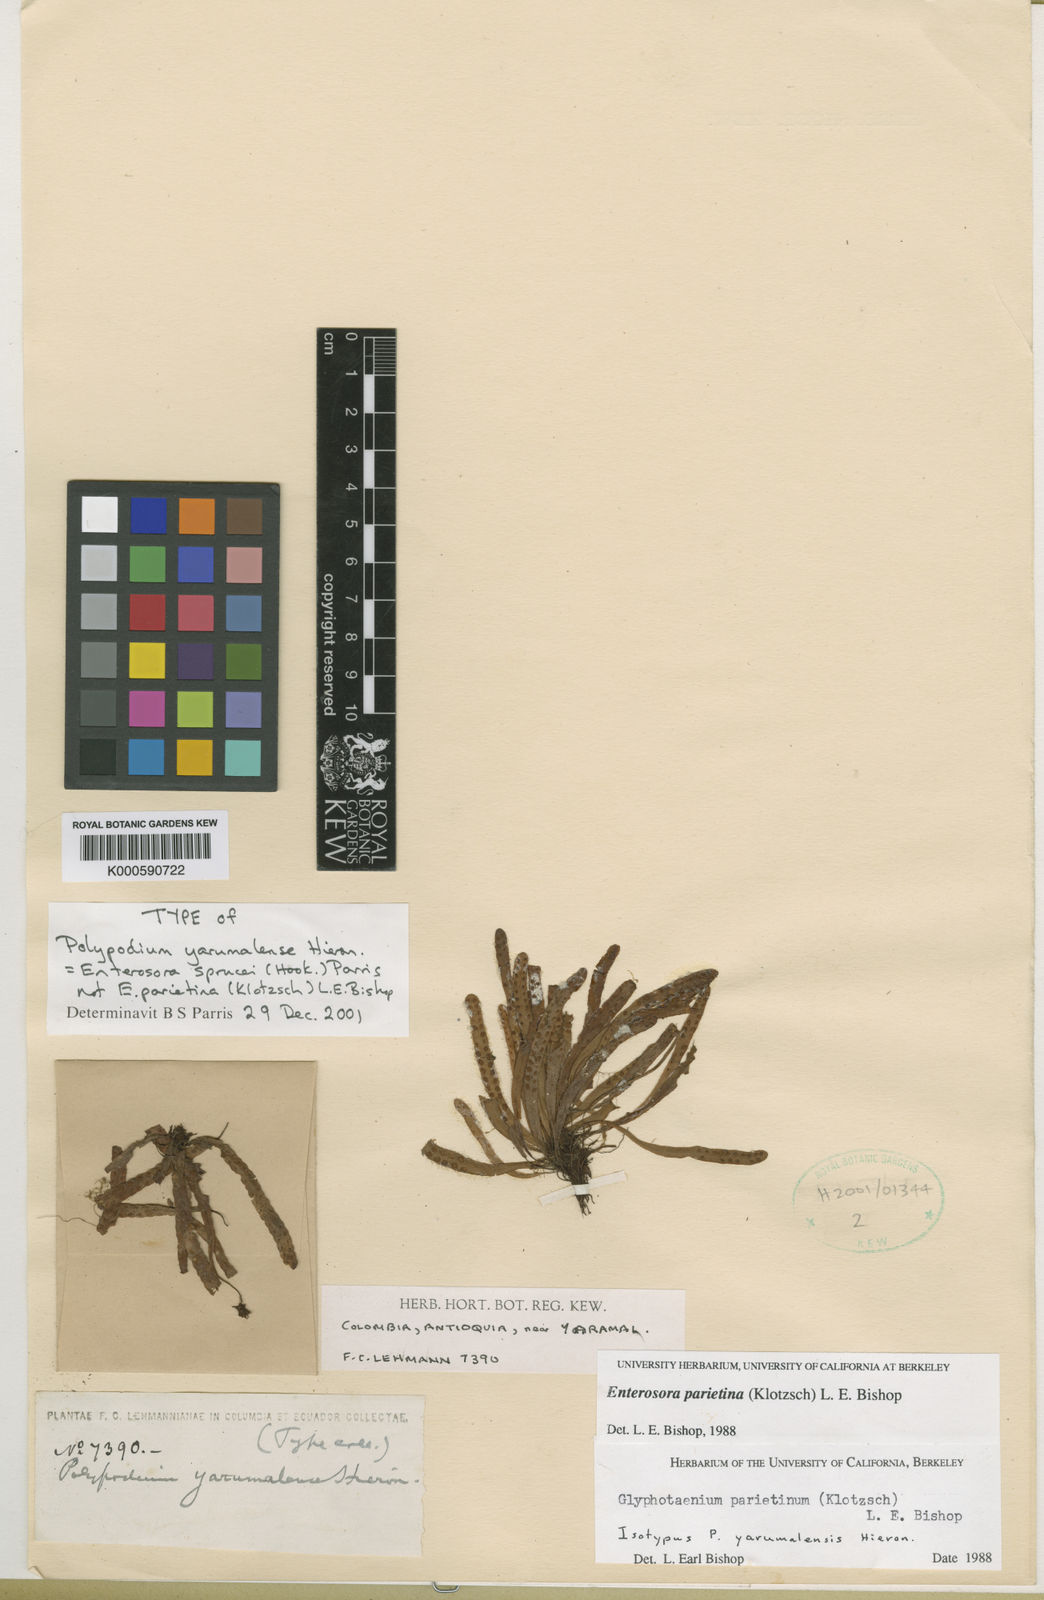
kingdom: Plantae
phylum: Tracheophyta
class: Polypodiopsida
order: Polypodiales
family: Polypodiaceae
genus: Parrisia
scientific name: Parrisia parietina
